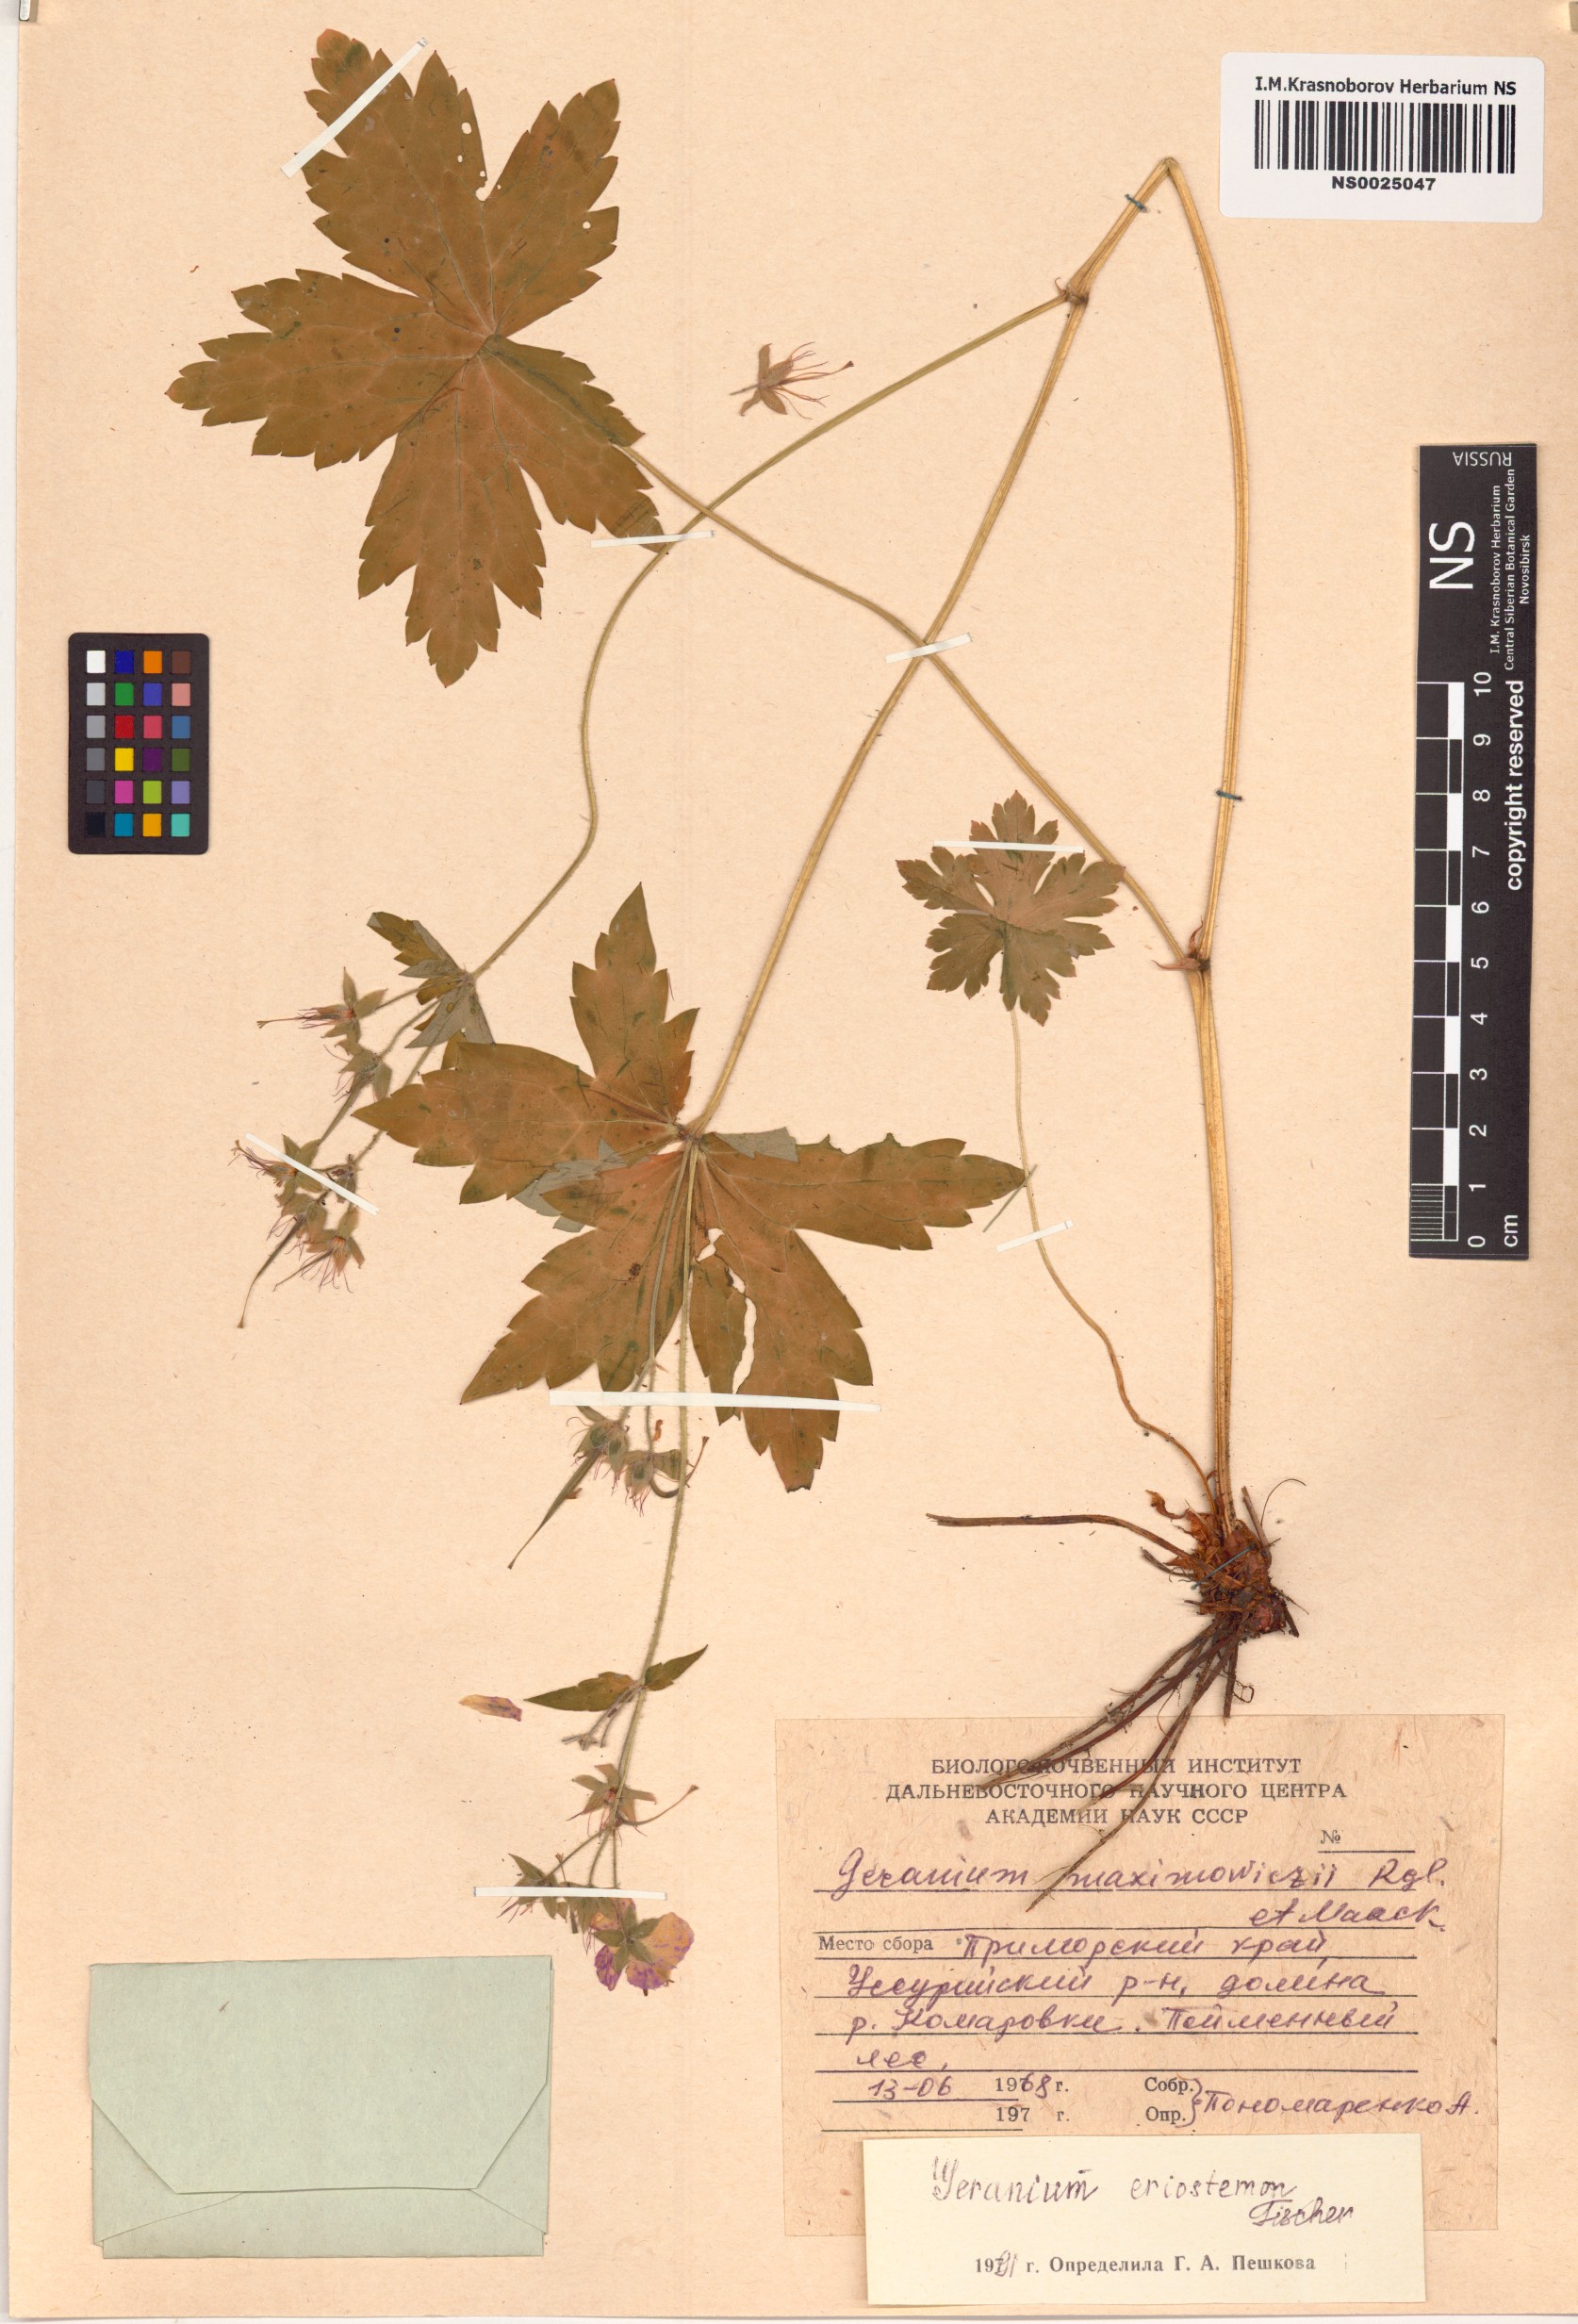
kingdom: Plantae
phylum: Tracheophyta
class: Magnoliopsida
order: Geraniales
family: Geraniaceae
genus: Geranium
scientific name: Geranium platyanthum
